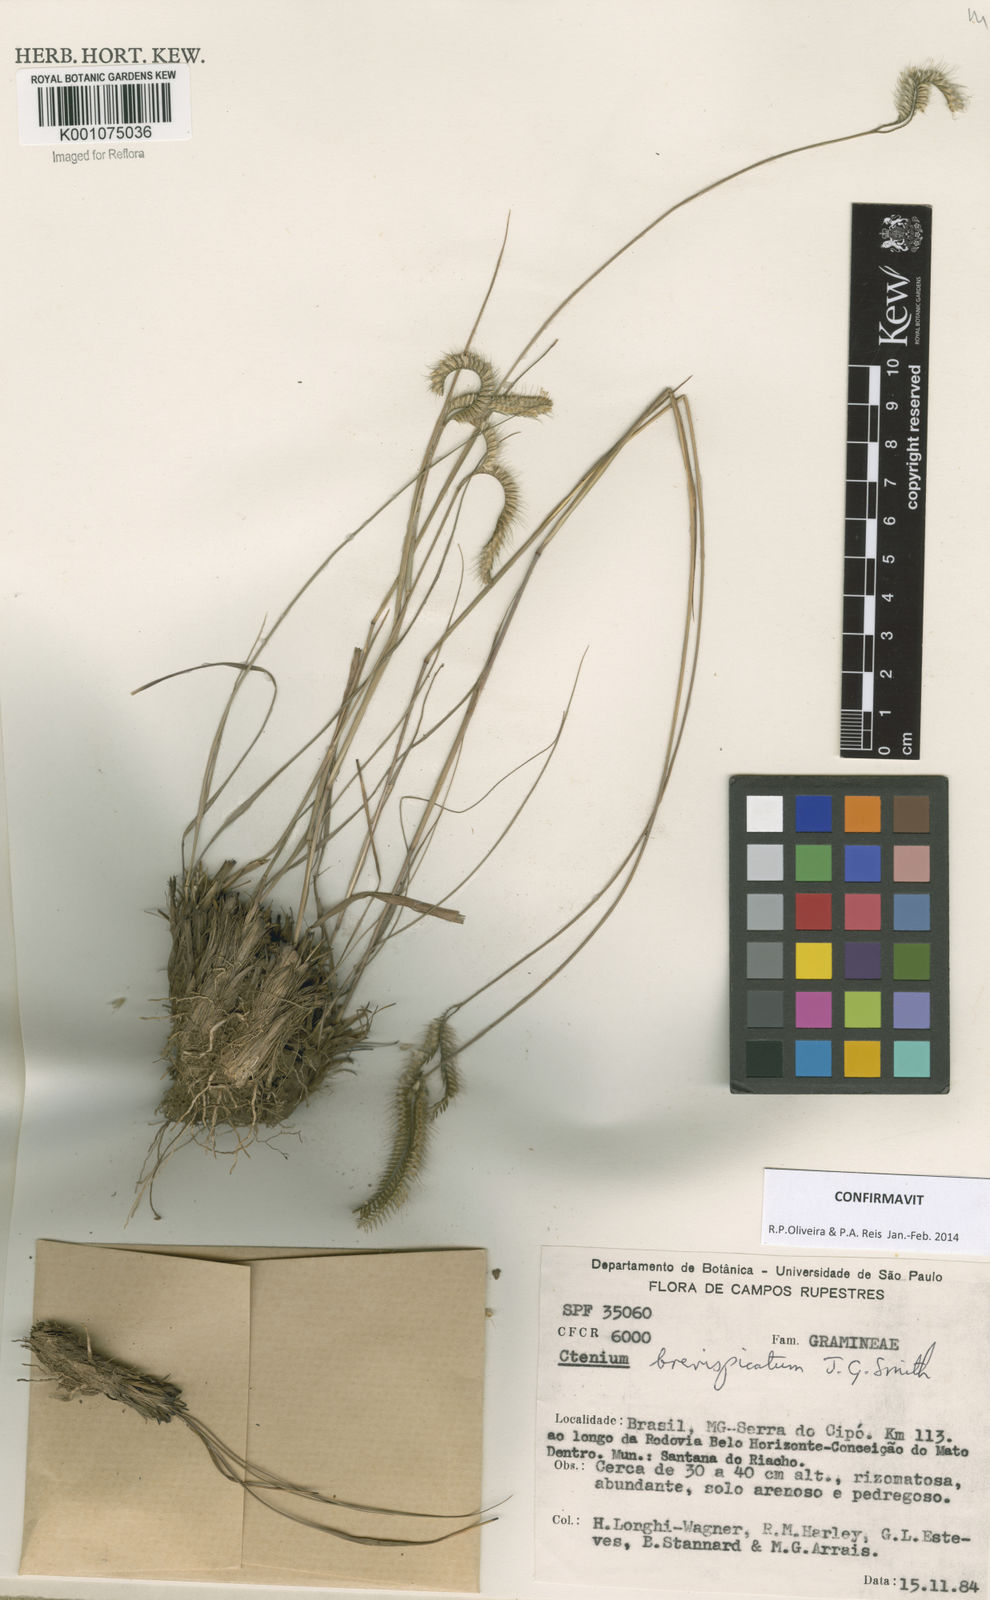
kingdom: Plantae
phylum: Tracheophyta
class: Liliopsida
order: Poales
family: Poaceae
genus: Ctenium
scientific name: Ctenium brevispicatum
